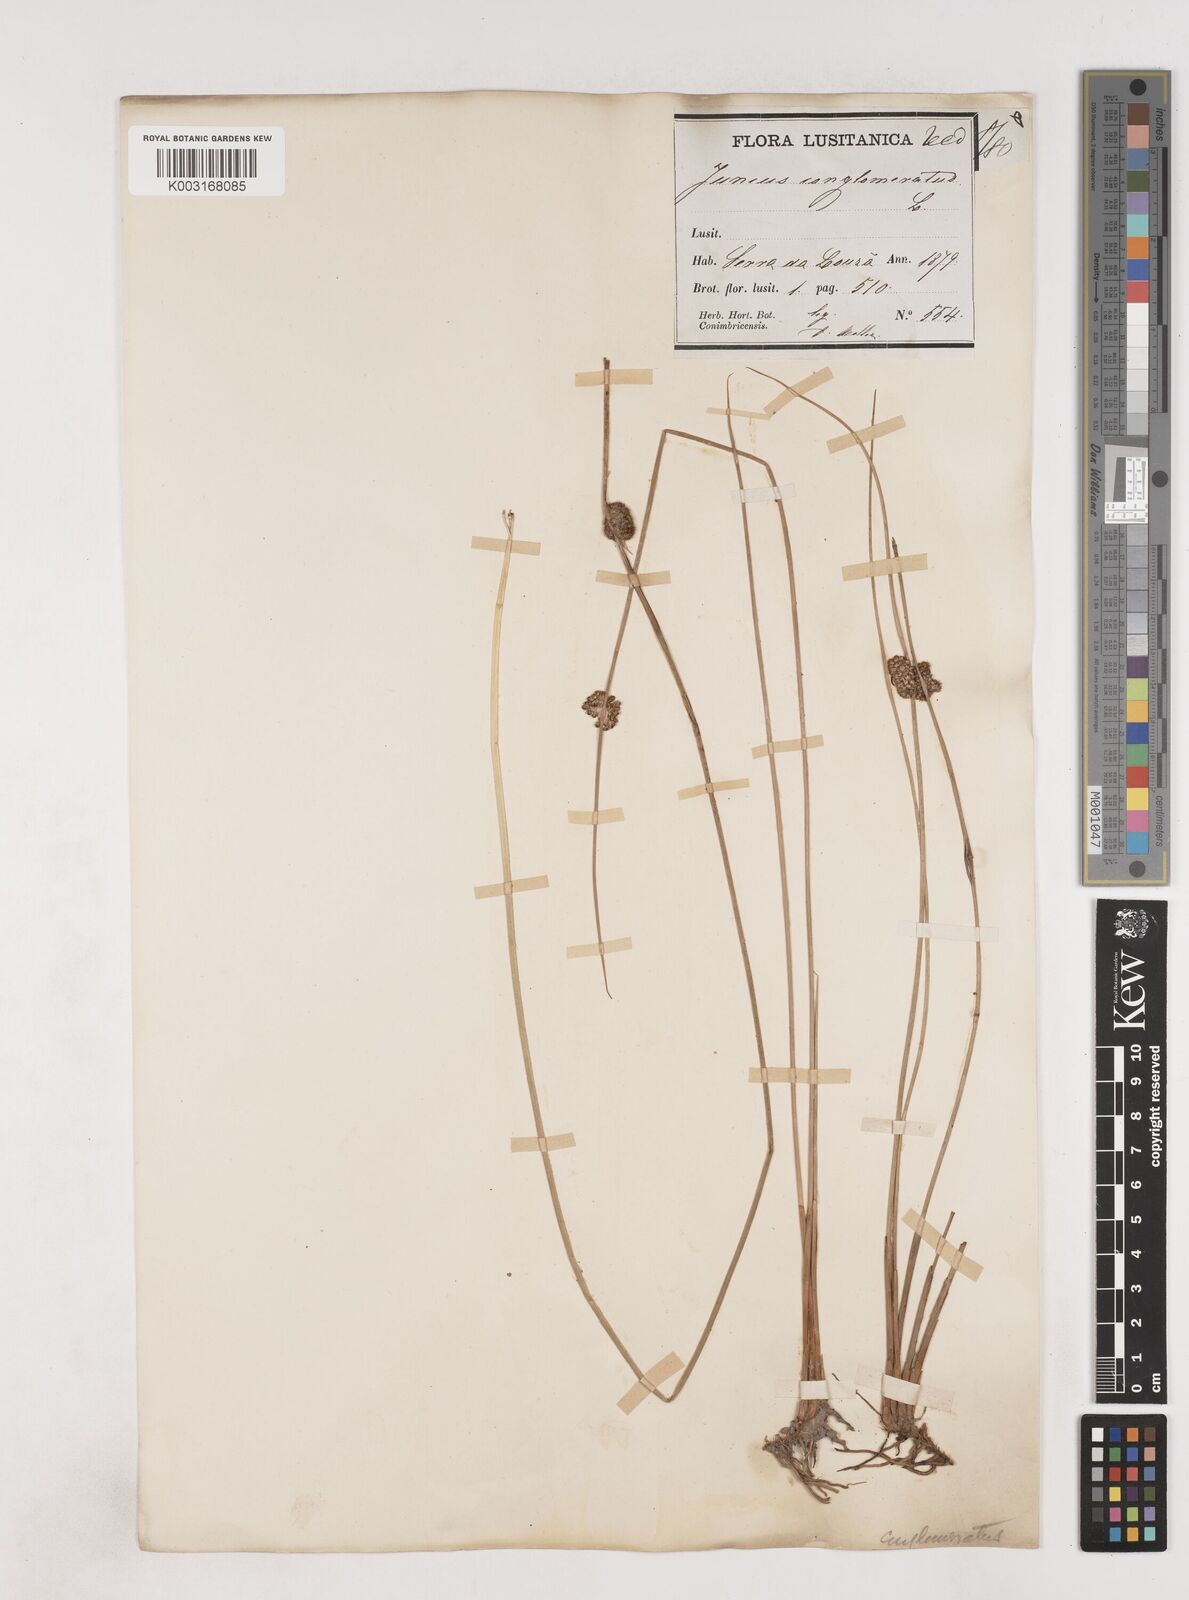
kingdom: Plantae
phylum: Tracheophyta
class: Liliopsida
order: Poales
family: Juncaceae
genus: Juncus
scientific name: Juncus conglomeratus
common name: Compact rush
